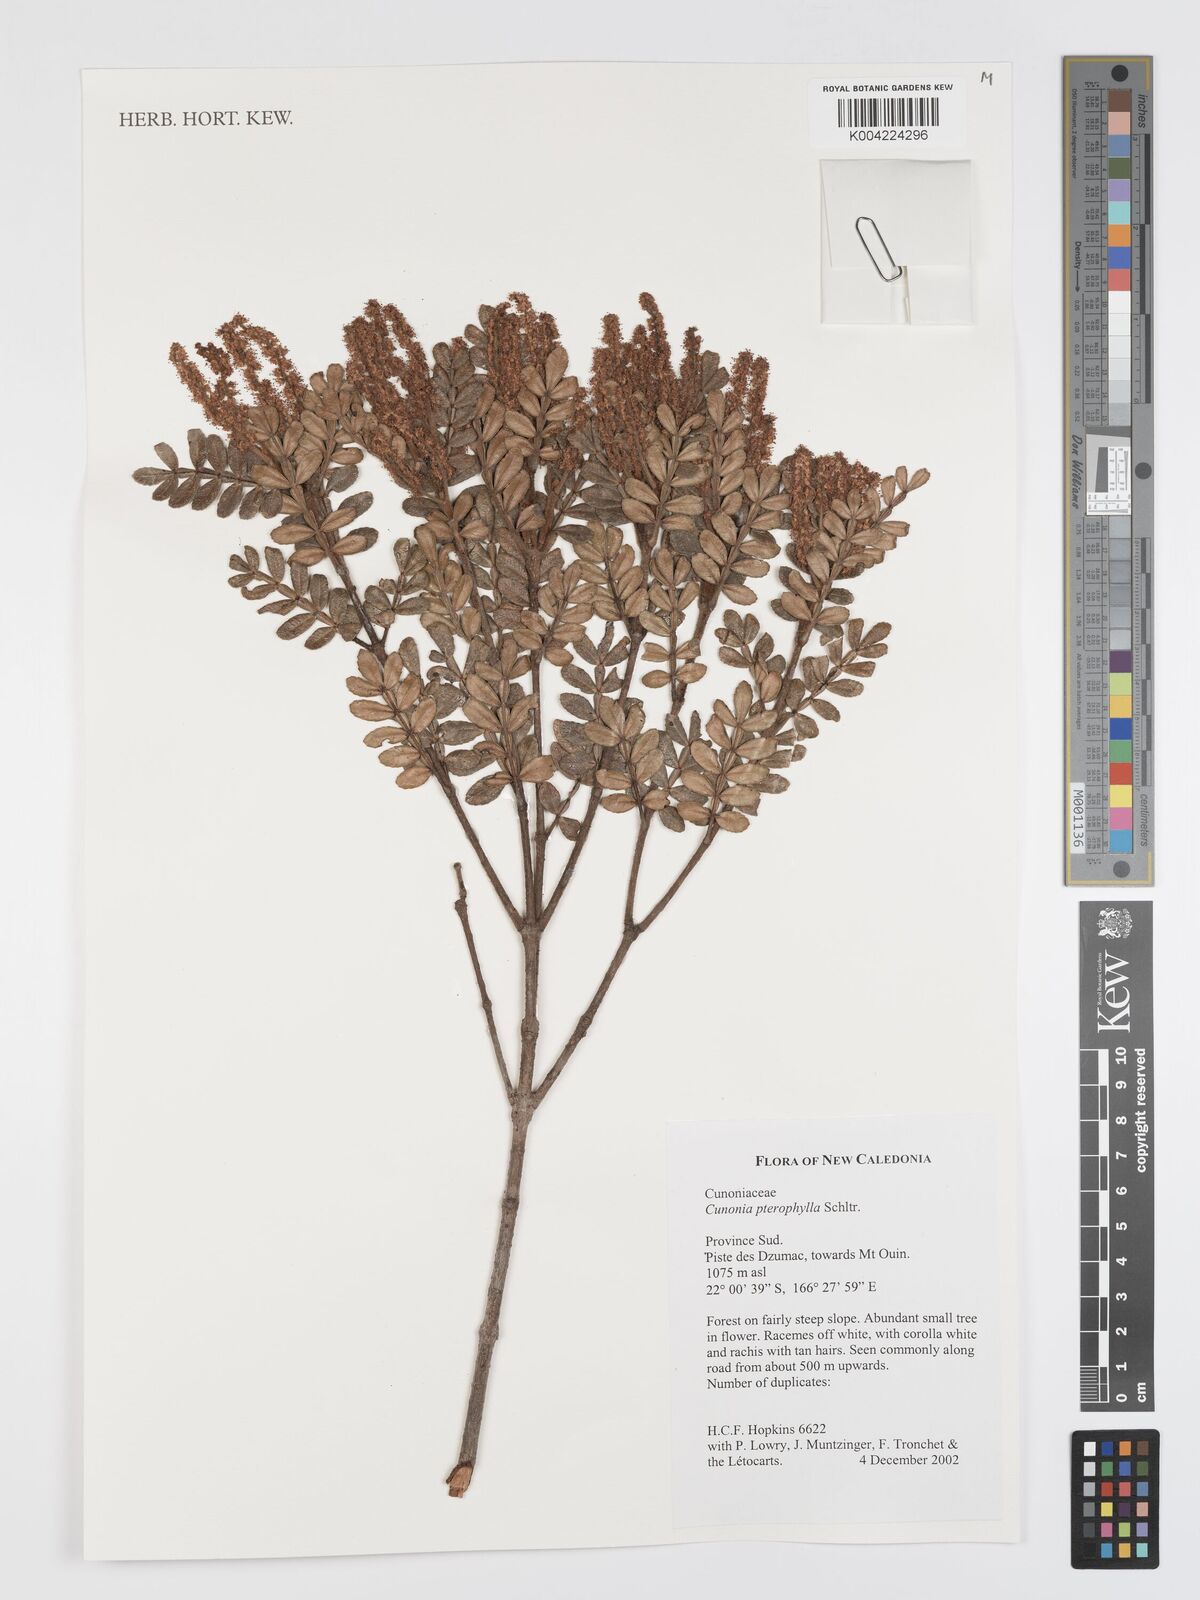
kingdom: Plantae
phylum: Tracheophyta
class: Magnoliopsida
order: Oxalidales
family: Cunoniaceae
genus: Cunonia
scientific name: Cunonia pterophylla
